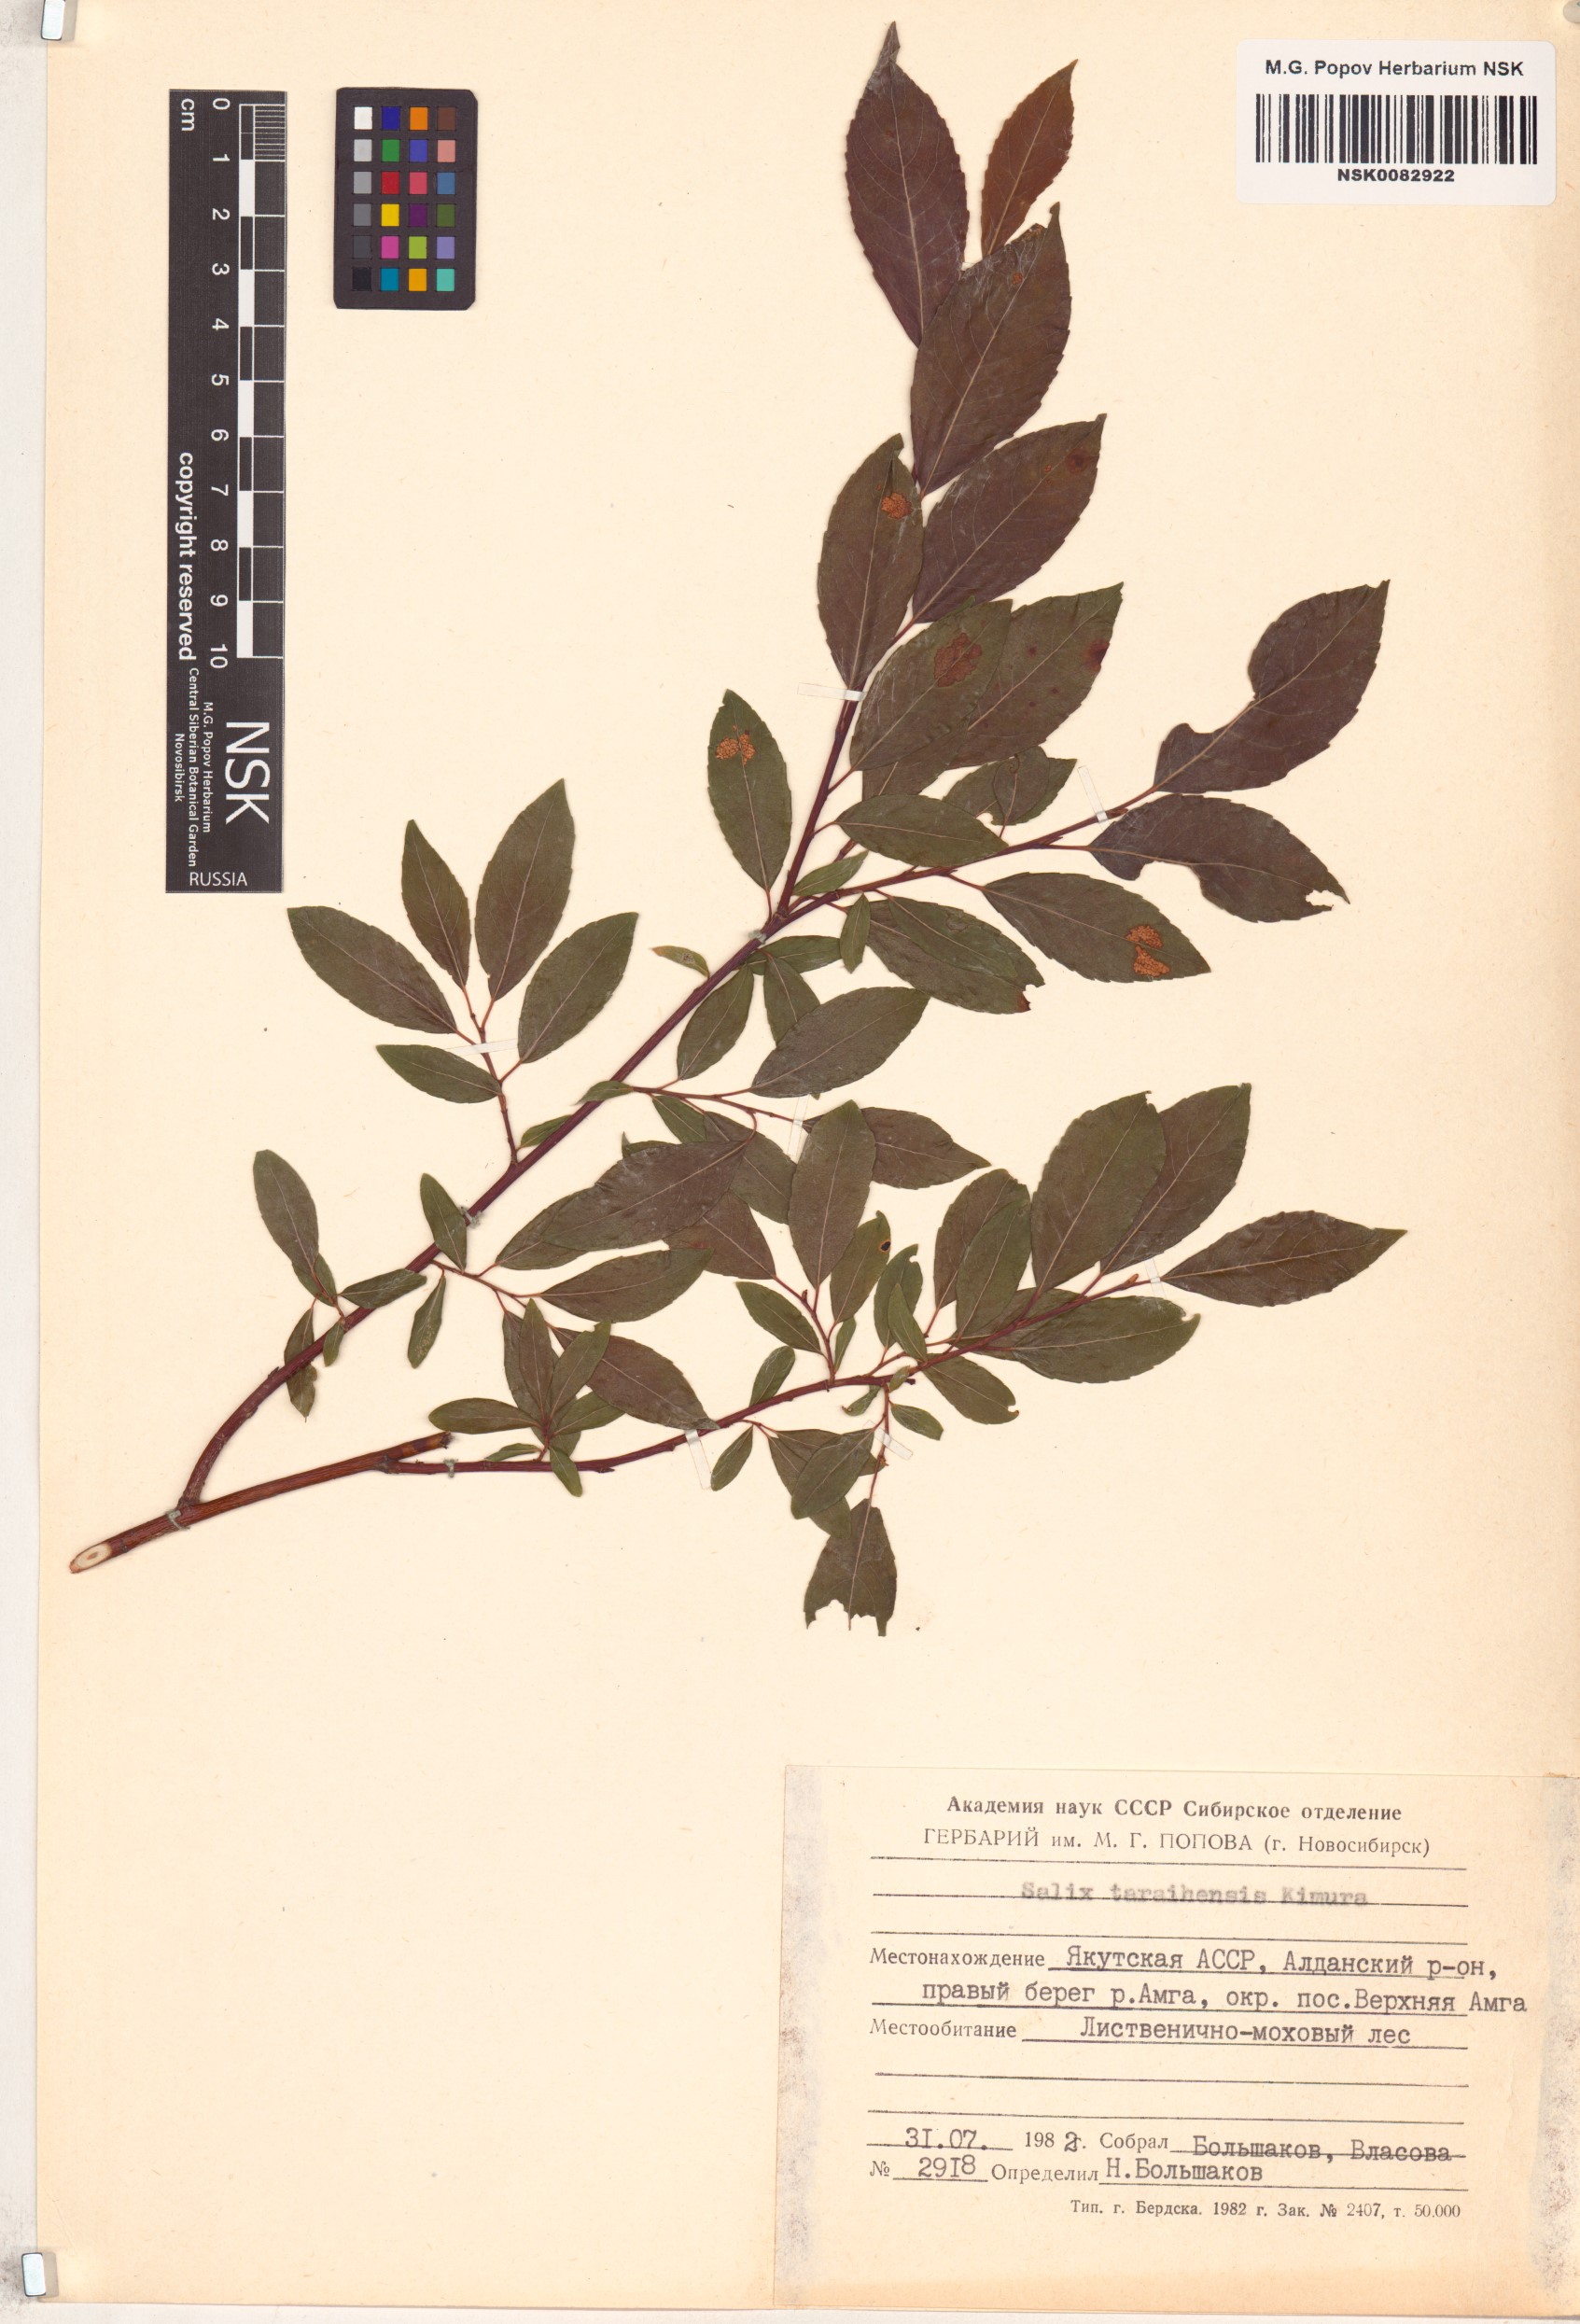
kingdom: Plantae
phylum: Tracheophyta
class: Magnoliopsida
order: Malpighiales
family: Salicaceae
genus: Salix
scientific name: Salix taraikensis
